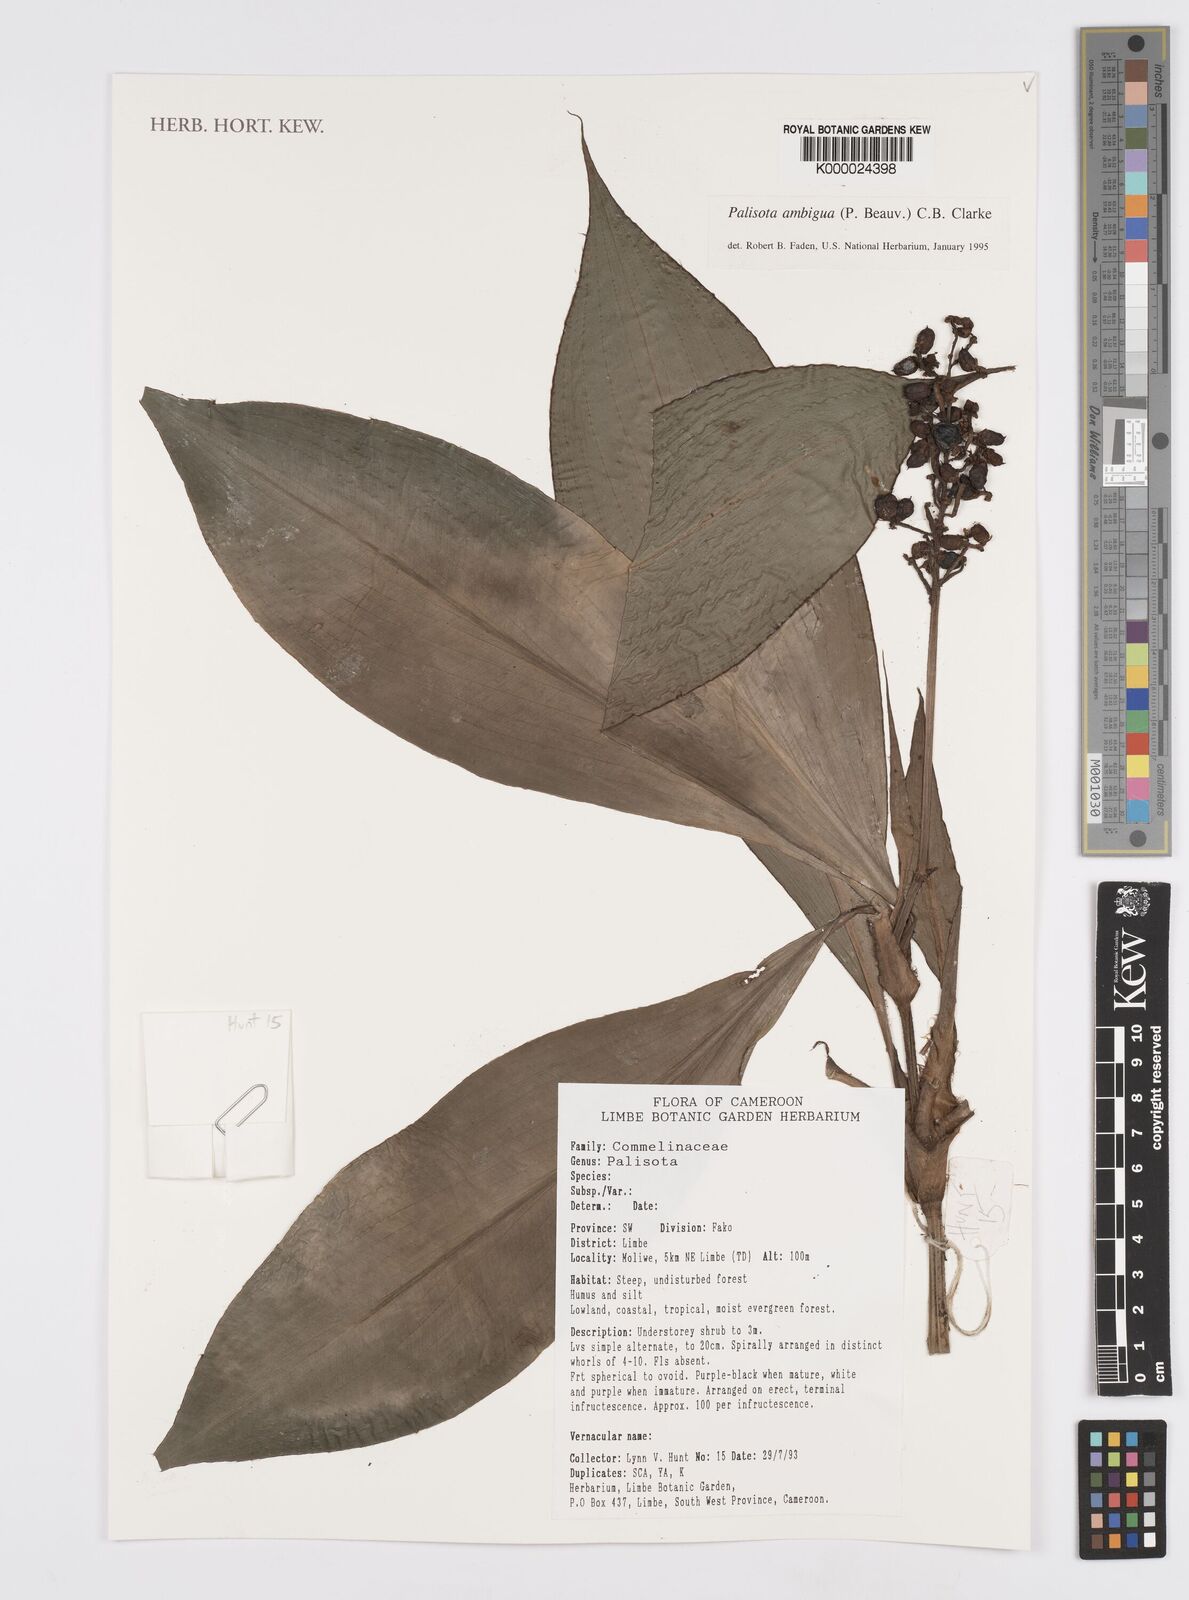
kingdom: Plantae
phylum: Tracheophyta
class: Liliopsida
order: Commelinales
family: Commelinaceae
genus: Palisota
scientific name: Palisota ambigua
